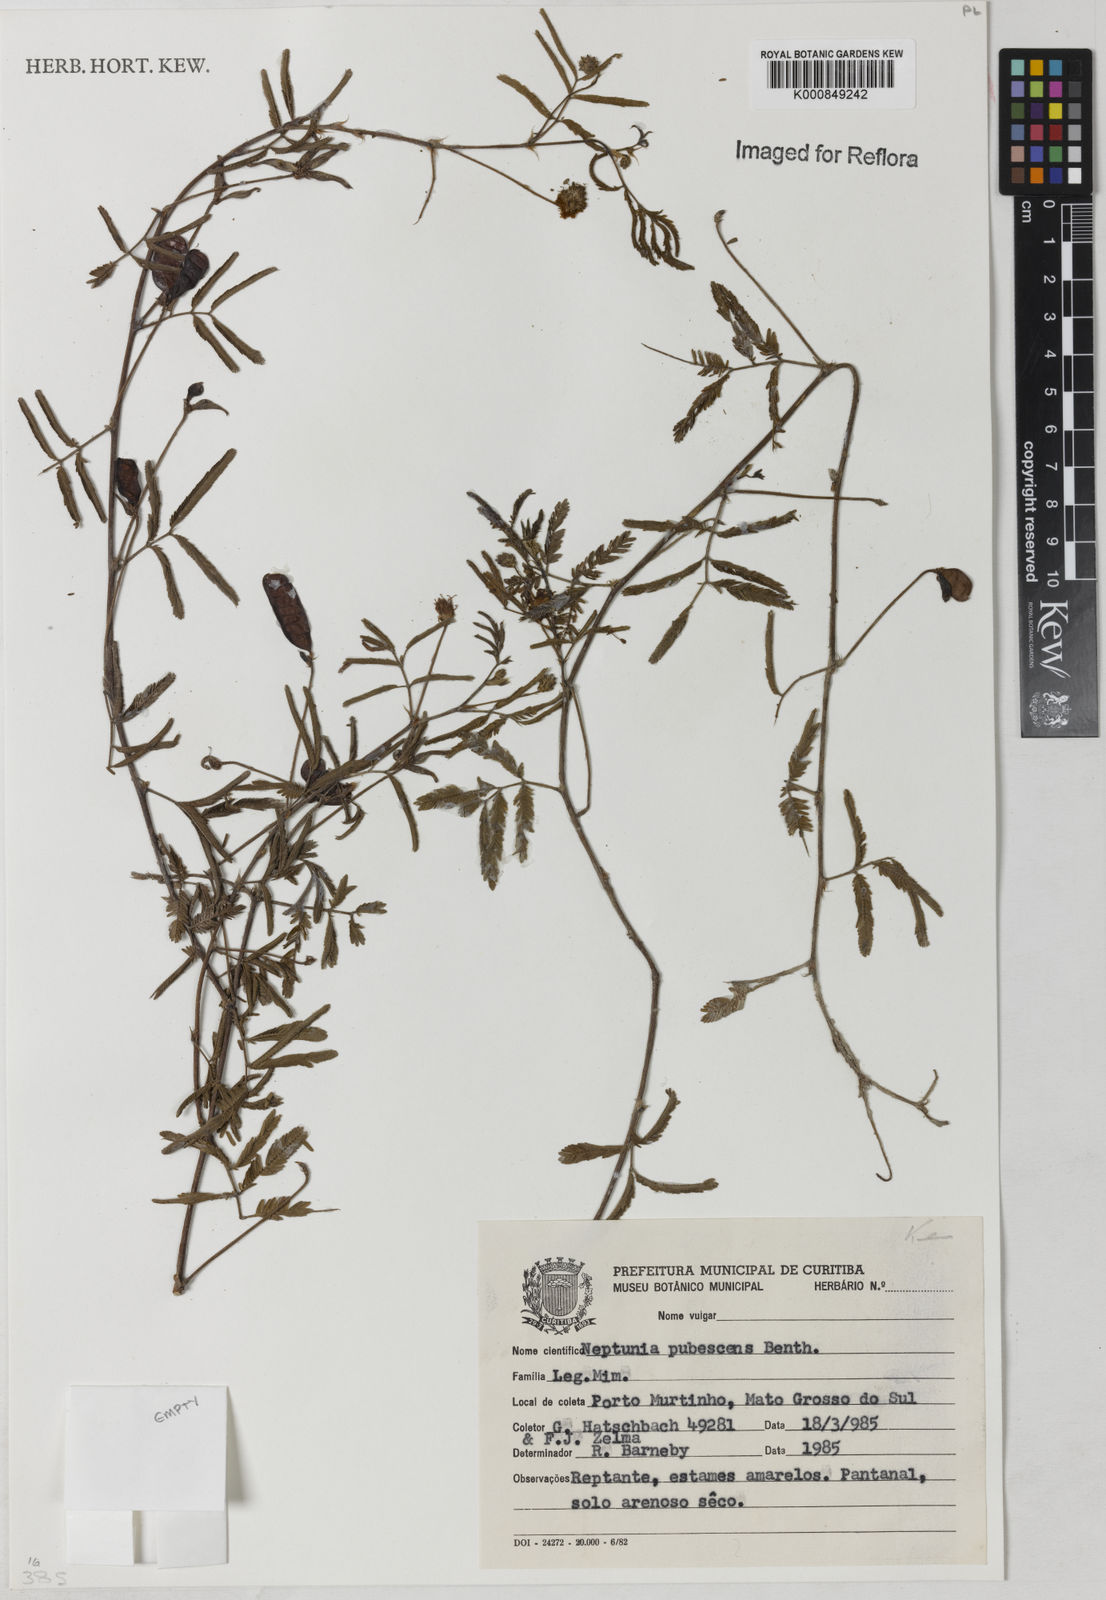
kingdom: Plantae
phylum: Tracheophyta
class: Magnoliopsida
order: Fabales
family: Fabaceae
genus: Neptunia
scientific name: Neptunia pubescens
